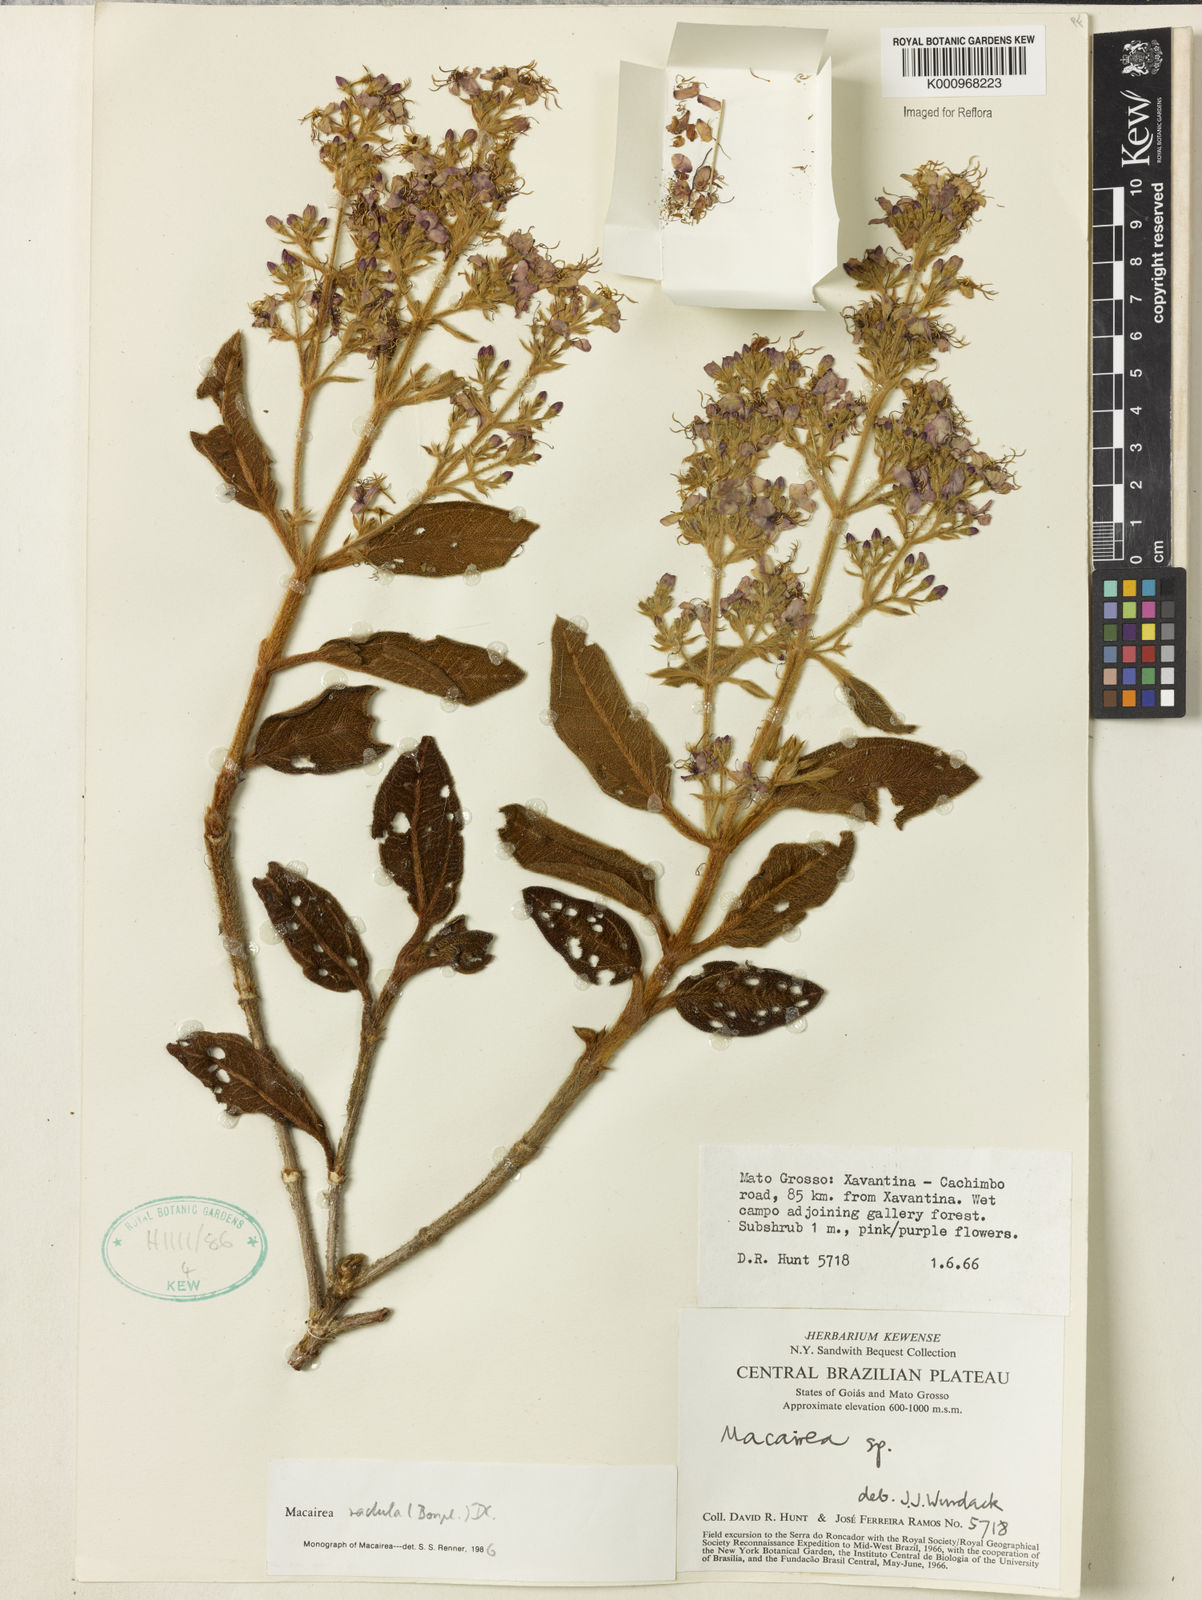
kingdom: Plantae
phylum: Tracheophyta
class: Magnoliopsida
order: Myrtales
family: Melastomataceae
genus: Macairea
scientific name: Macairea radula
